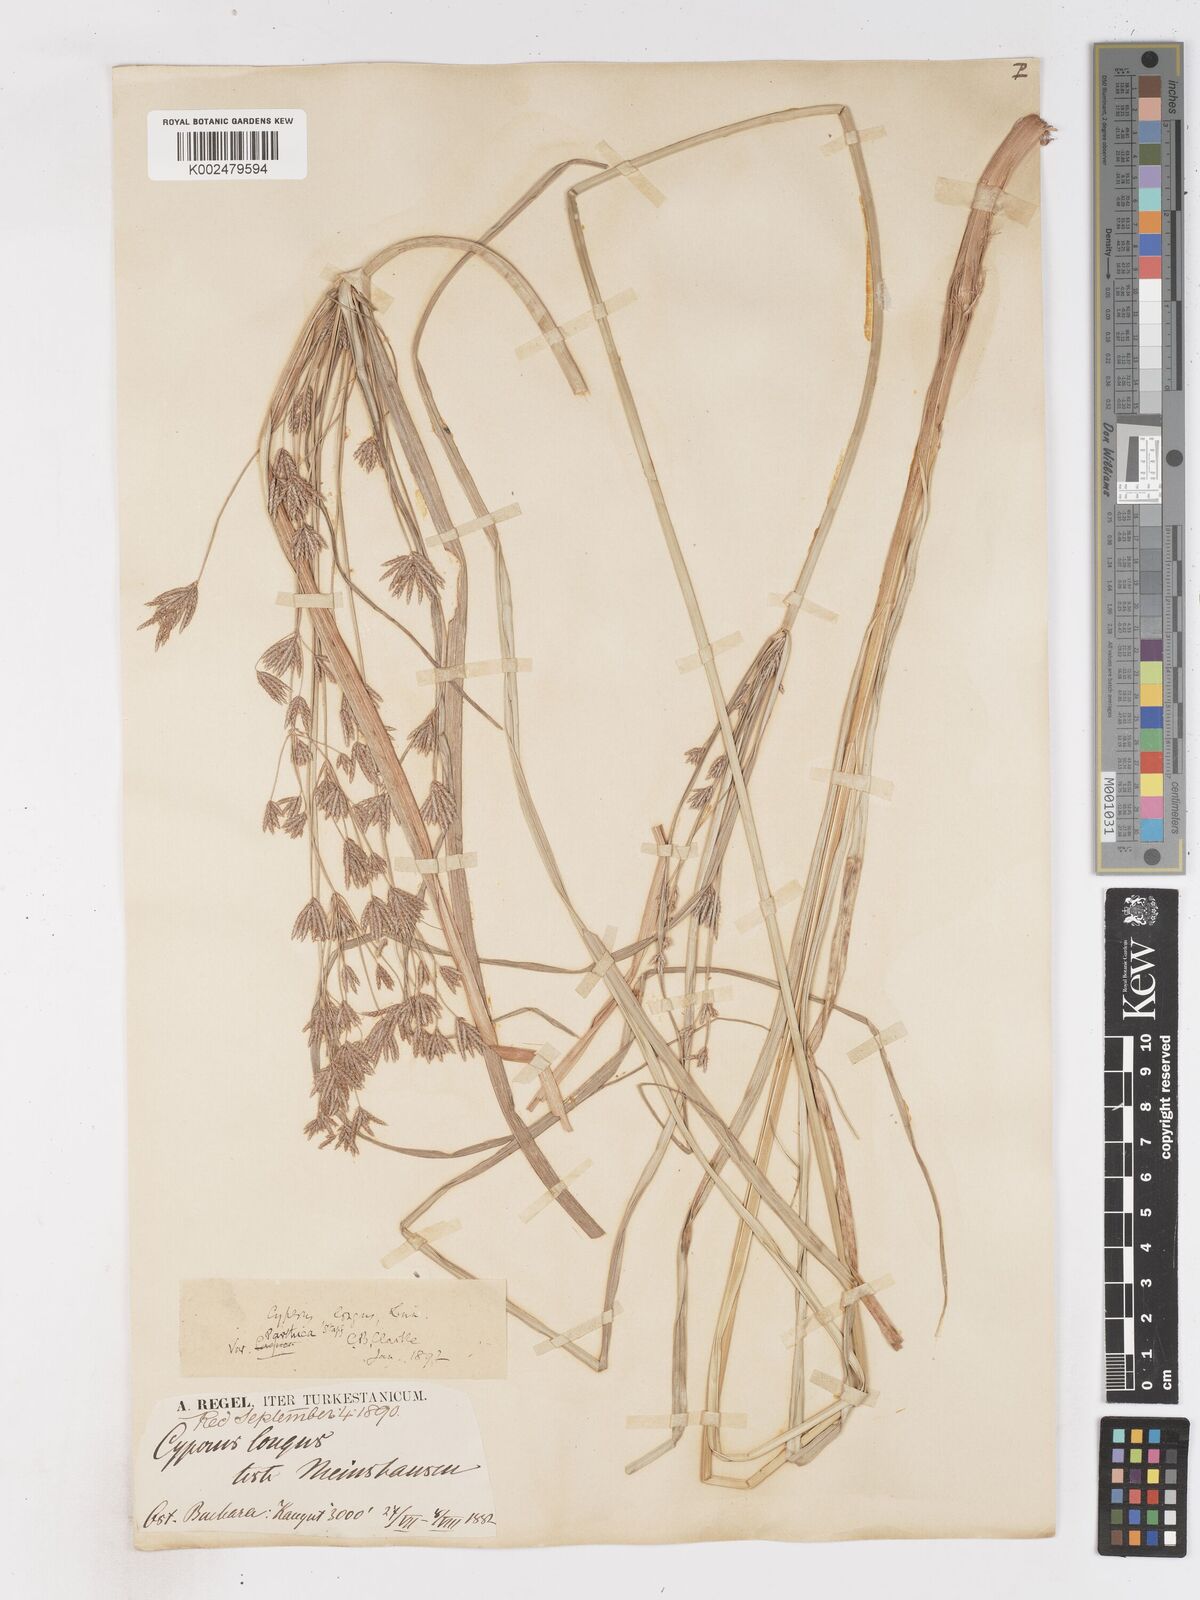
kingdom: Plantae
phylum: Tracheophyta
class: Liliopsida
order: Poales
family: Cyperaceae
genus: Cyperus
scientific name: Cyperus longus
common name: Galingale
